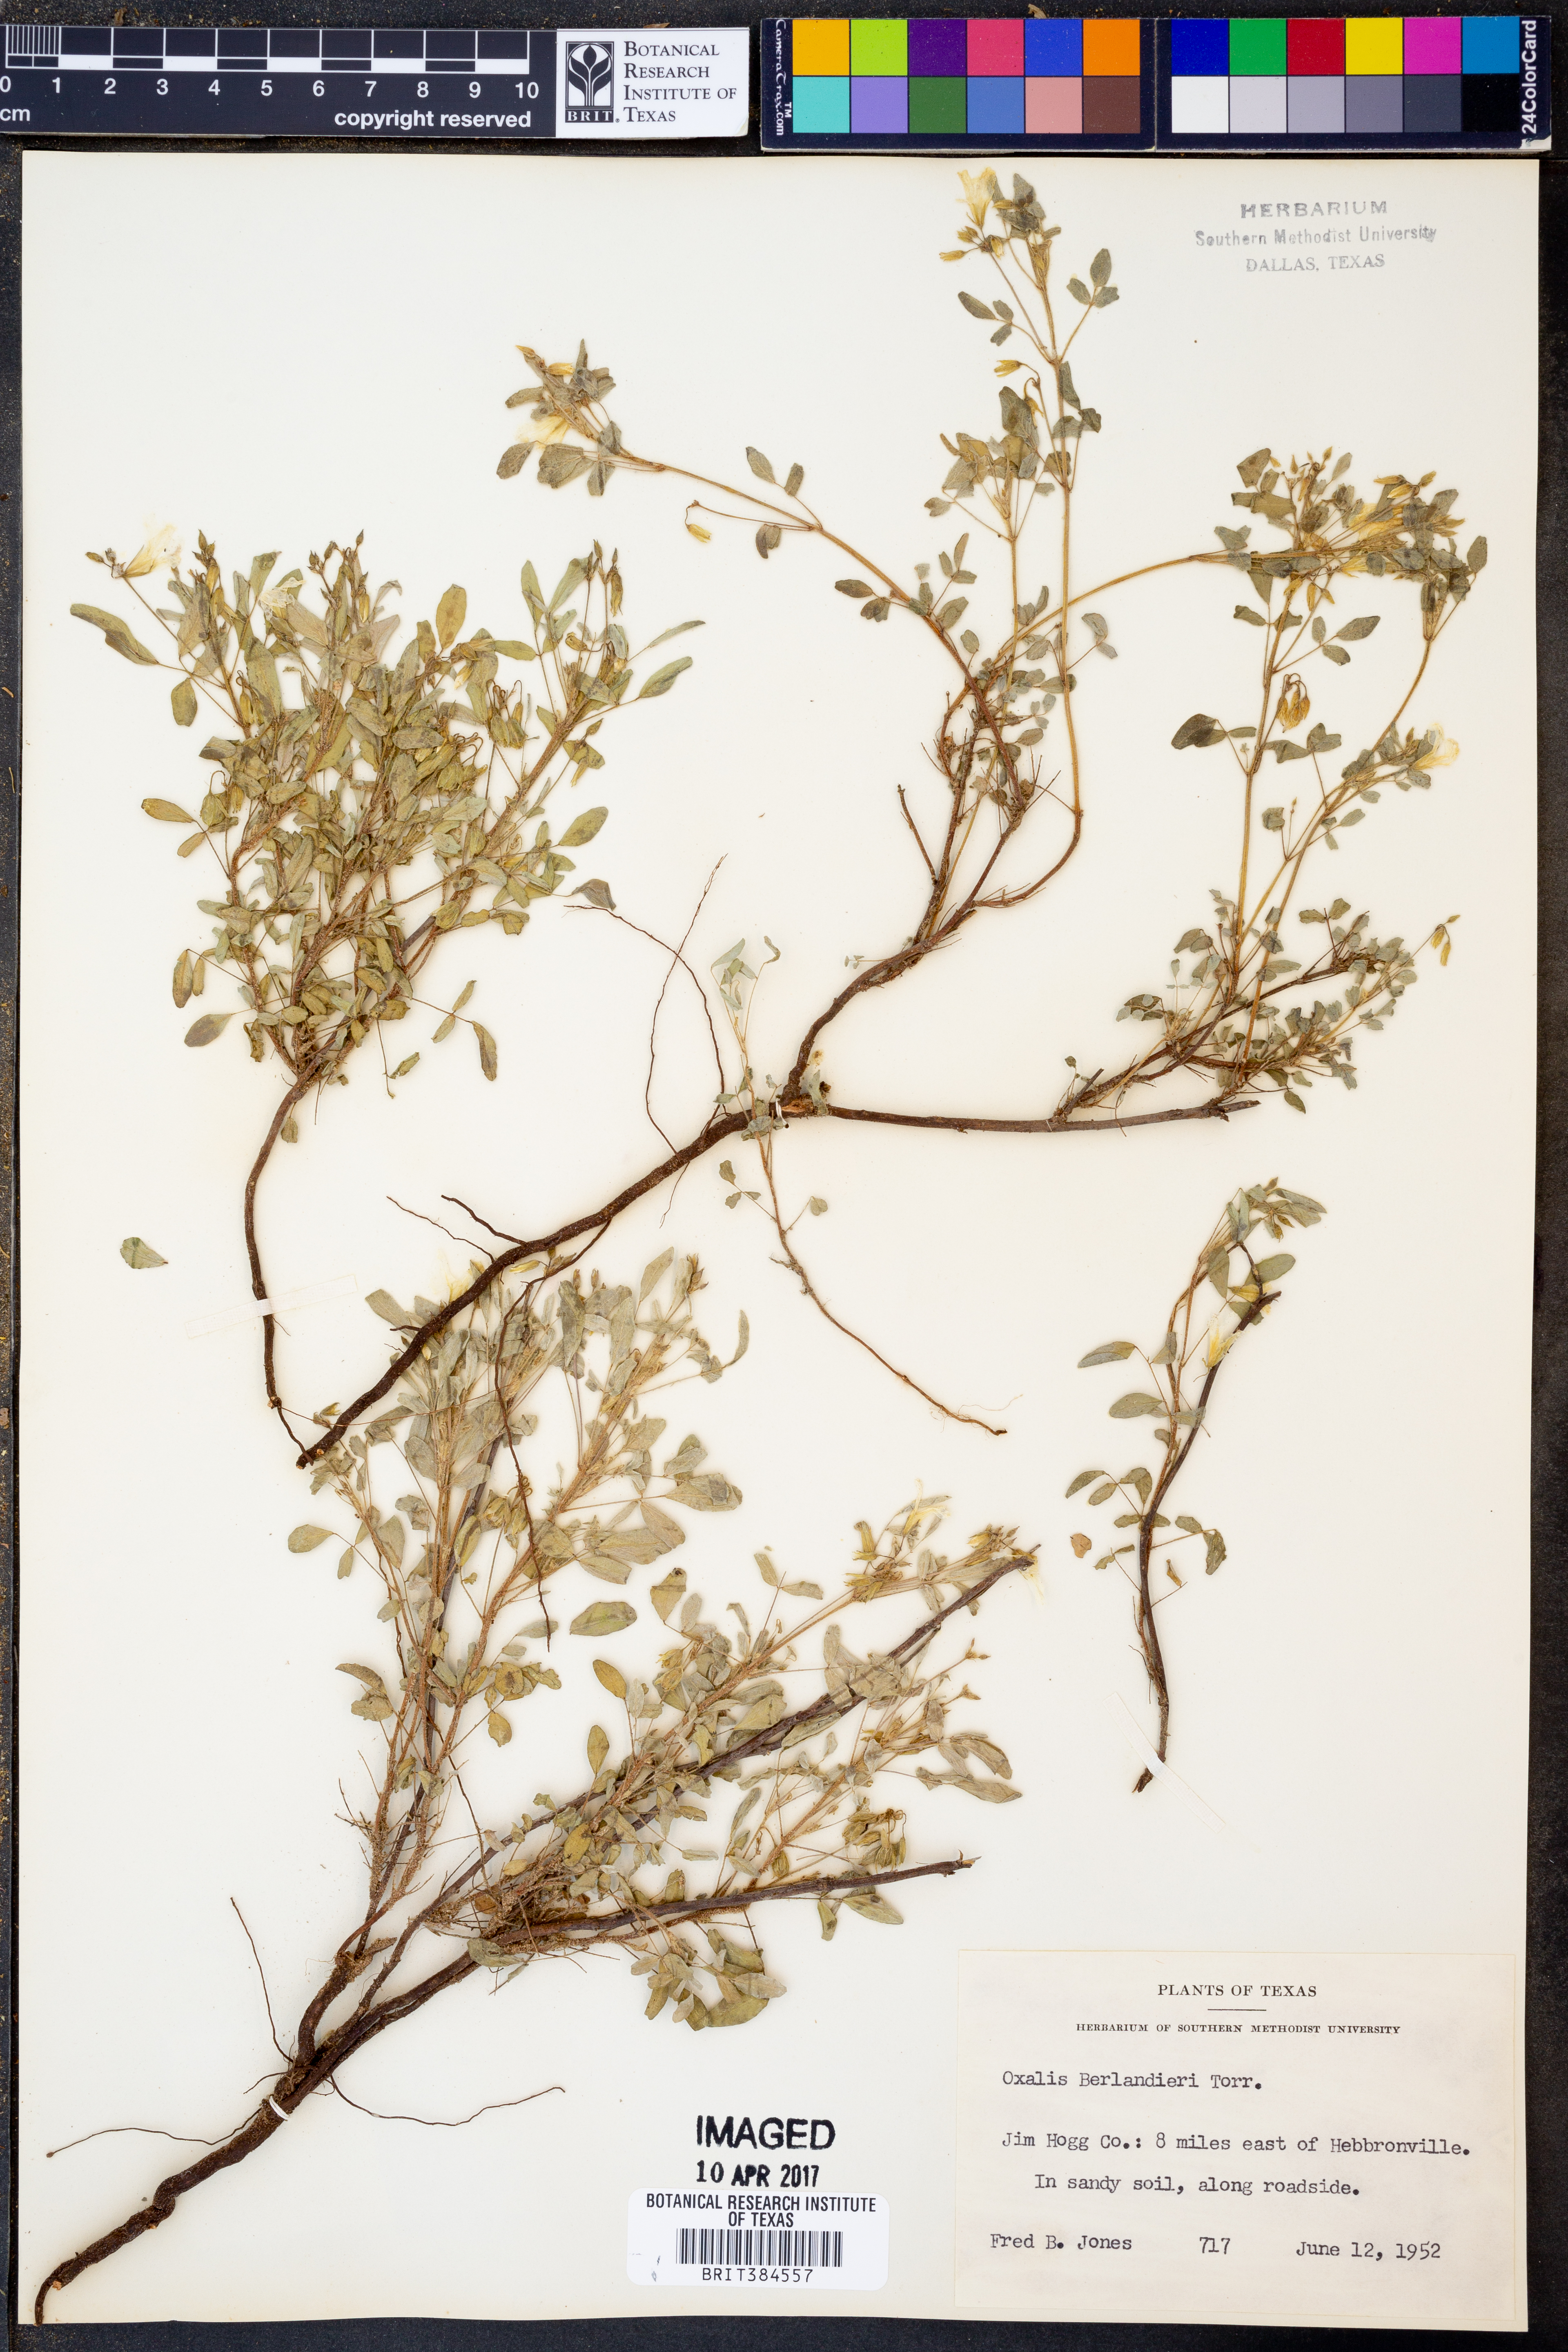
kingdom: Plantae
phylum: Tracheophyta
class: Magnoliopsida
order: Oxalidales
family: Oxalidaceae
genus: Oxalis
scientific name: Oxalis frutescens
